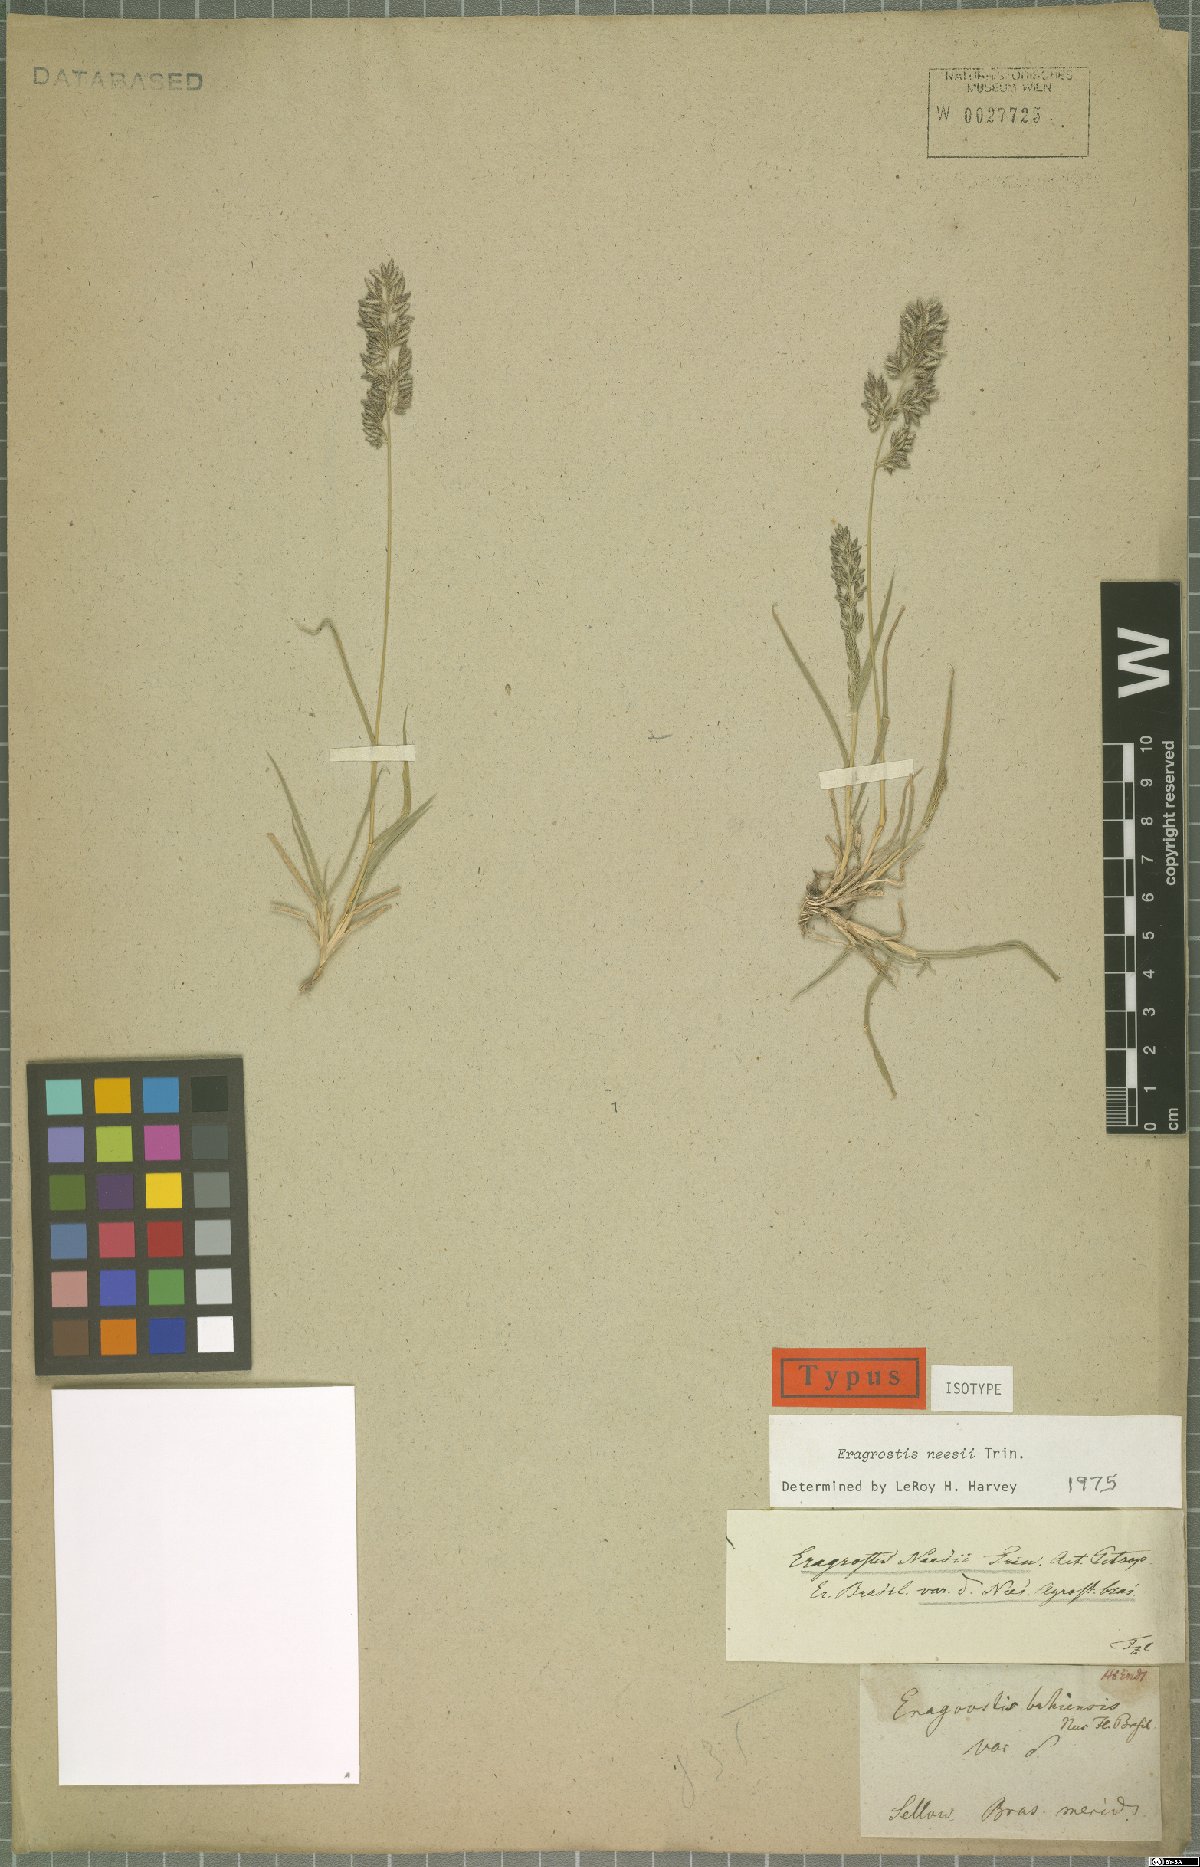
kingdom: Plantae
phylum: Tracheophyta
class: Liliopsida
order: Poales
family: Poaceae
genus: Eragrostis
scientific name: Eragrostis neesii
